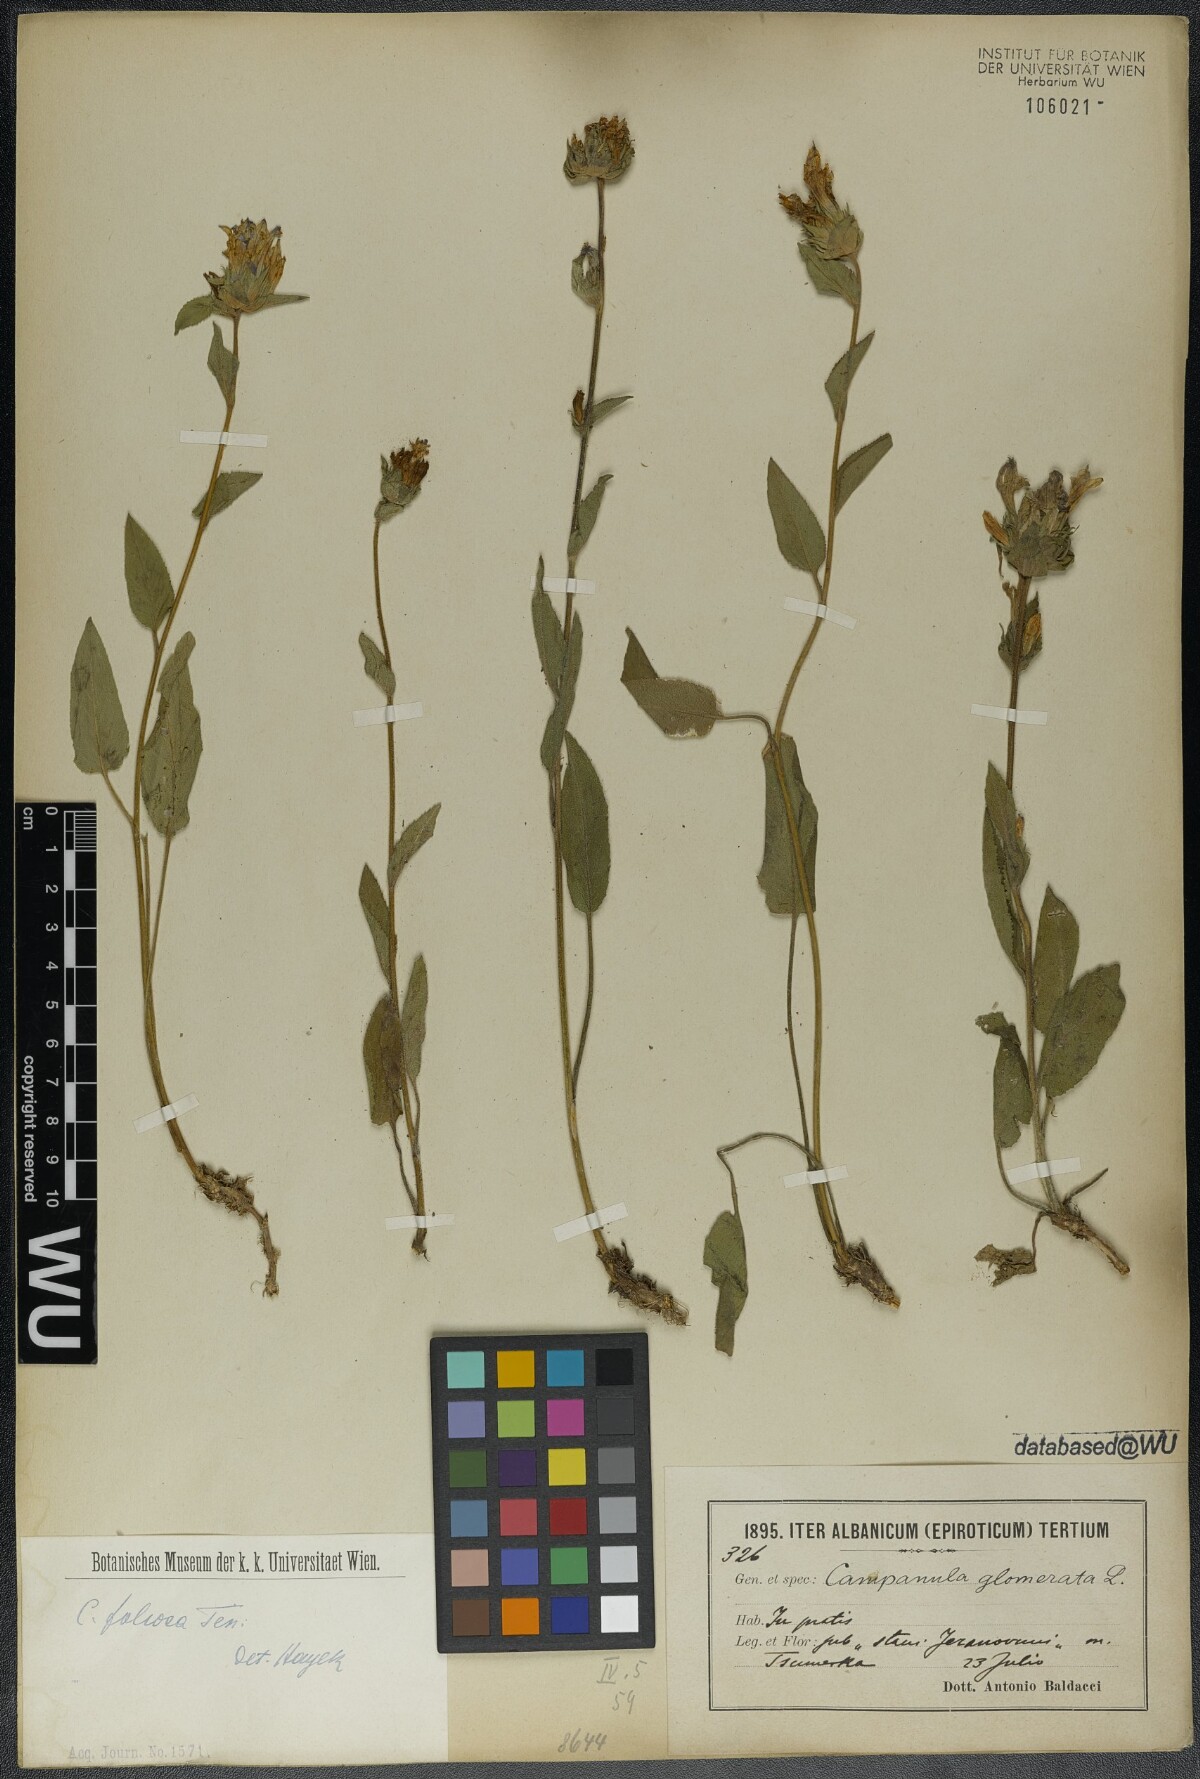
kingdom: Plantae
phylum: Tracheophyta
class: Magnoliopsida
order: Asterales
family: Campanulaceae
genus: Campanula
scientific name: Campanula foliosa
